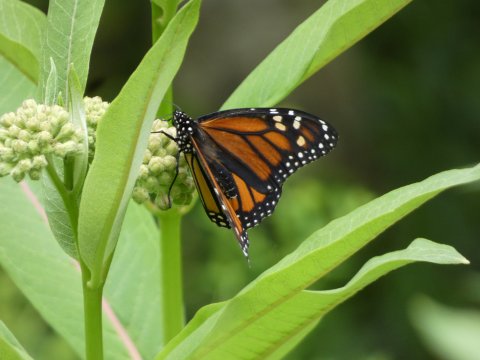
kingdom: Animalia
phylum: Arthropoda
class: Insecta
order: Lepidoptera
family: Nymphalidae
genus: Danaus
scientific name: Danaus plexippus
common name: Monarch
